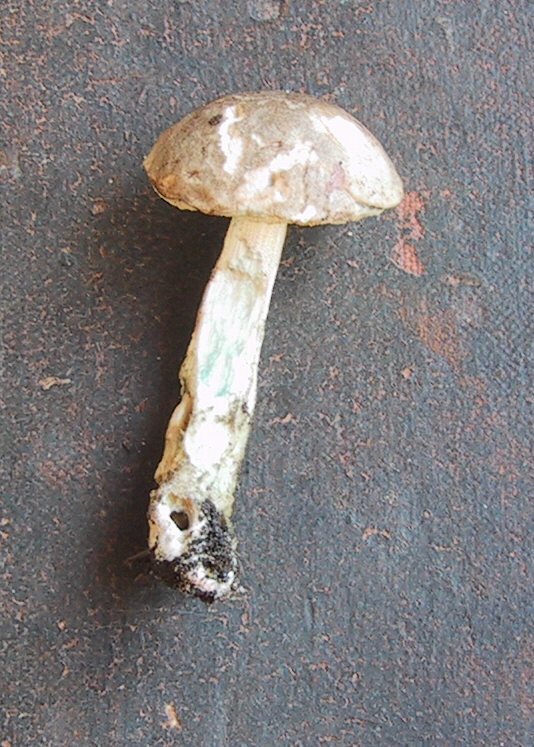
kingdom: Fungi
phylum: Basidiomycota
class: Agaricomycetes
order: Boletales
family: Boletaceae
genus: Leccinum
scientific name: Leccinum scabrum
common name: hvid skælrørhat
